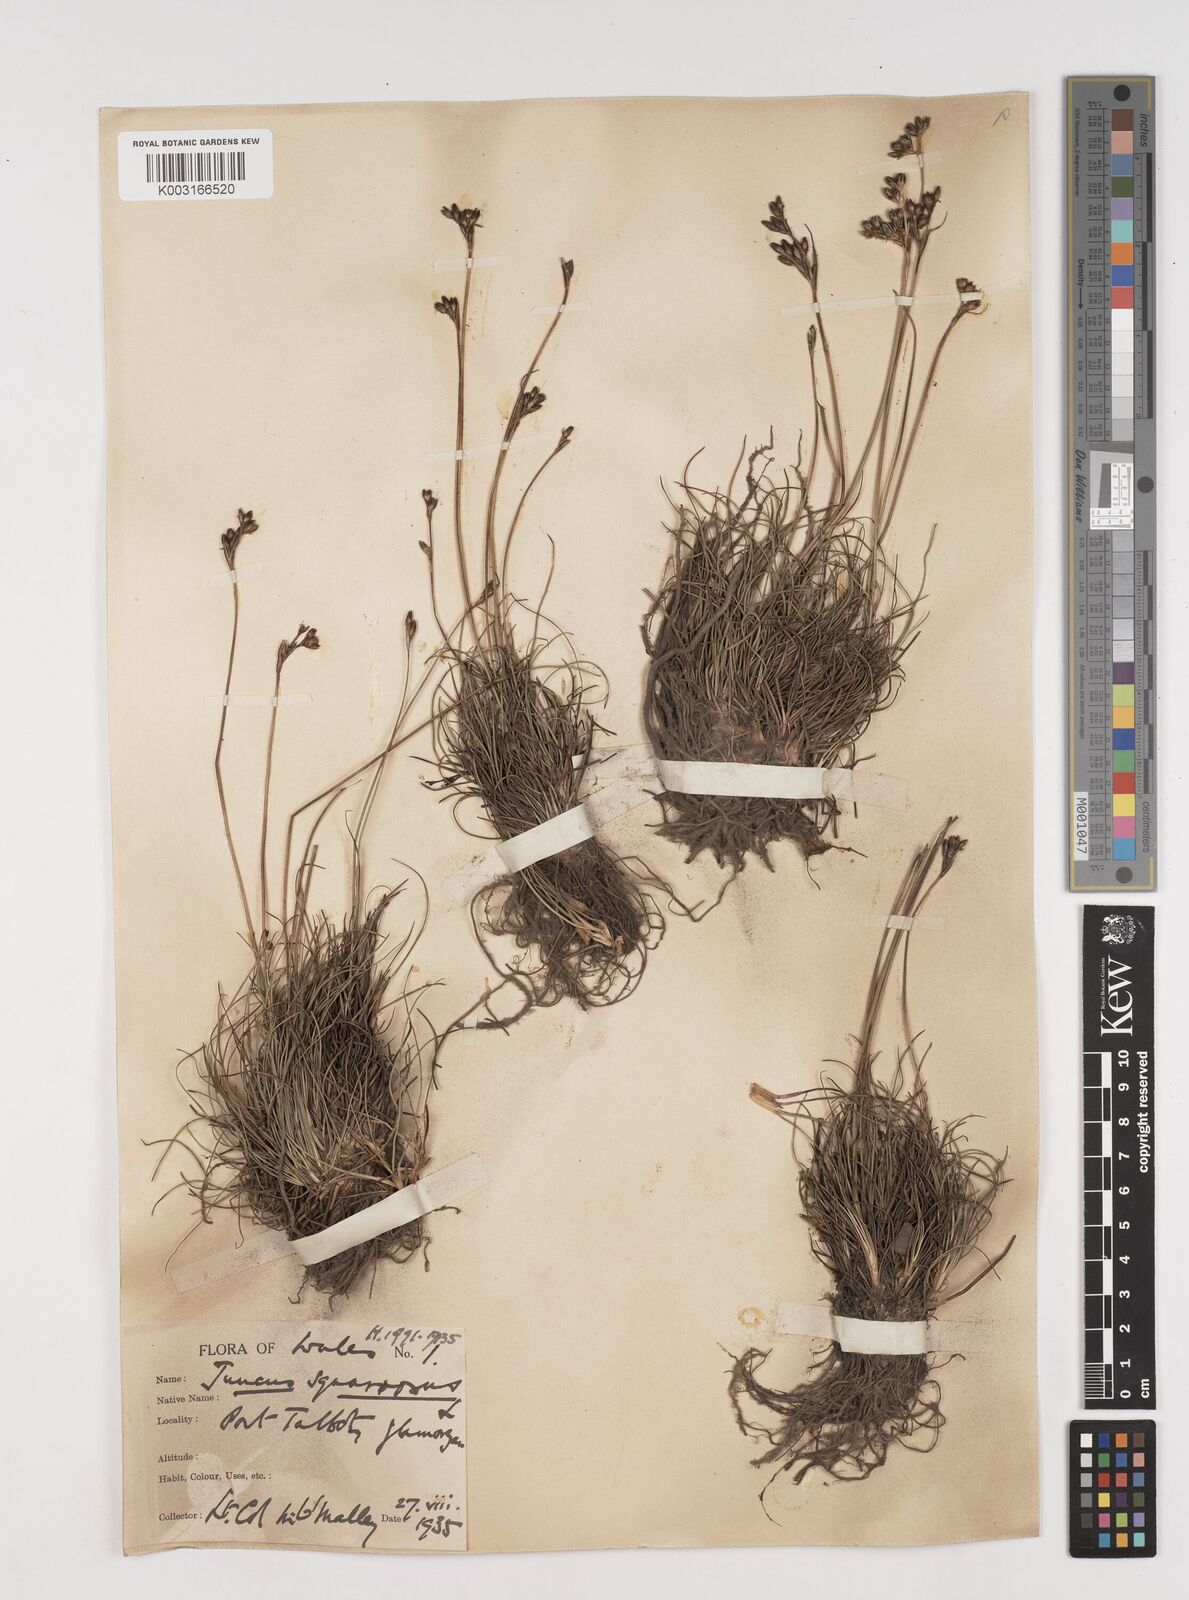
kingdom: Plantae
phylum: Tracheophyta
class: Liliopsida
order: Poales
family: Juncaceae
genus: Juncus
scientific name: Juncus squarrosus
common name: Heath rush
